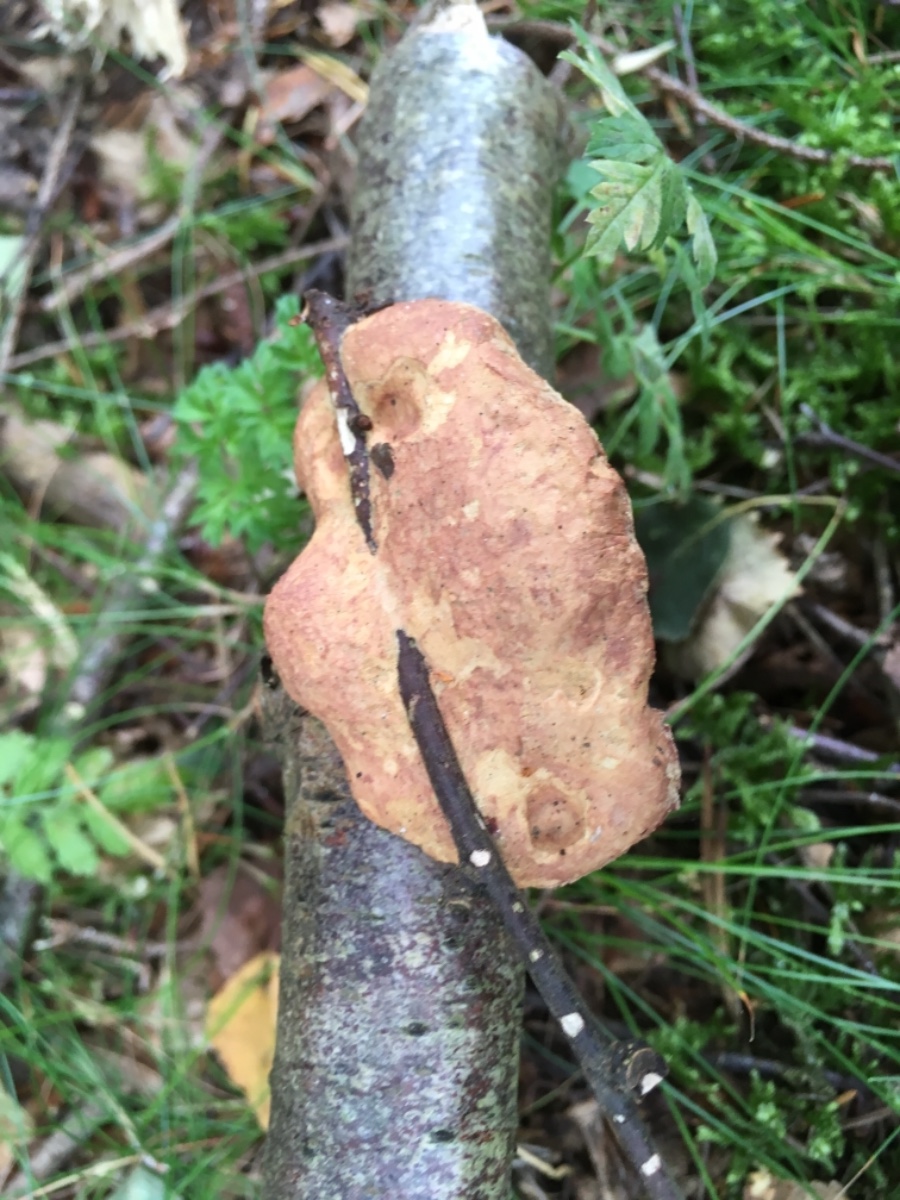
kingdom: Fungi
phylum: Basidiomycota
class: Agaricomycetes
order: Polyporales
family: Phanerochaetaceae
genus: Hapalopilus
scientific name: Hapalopilus rutilans
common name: rødlig okkerporesvamp
